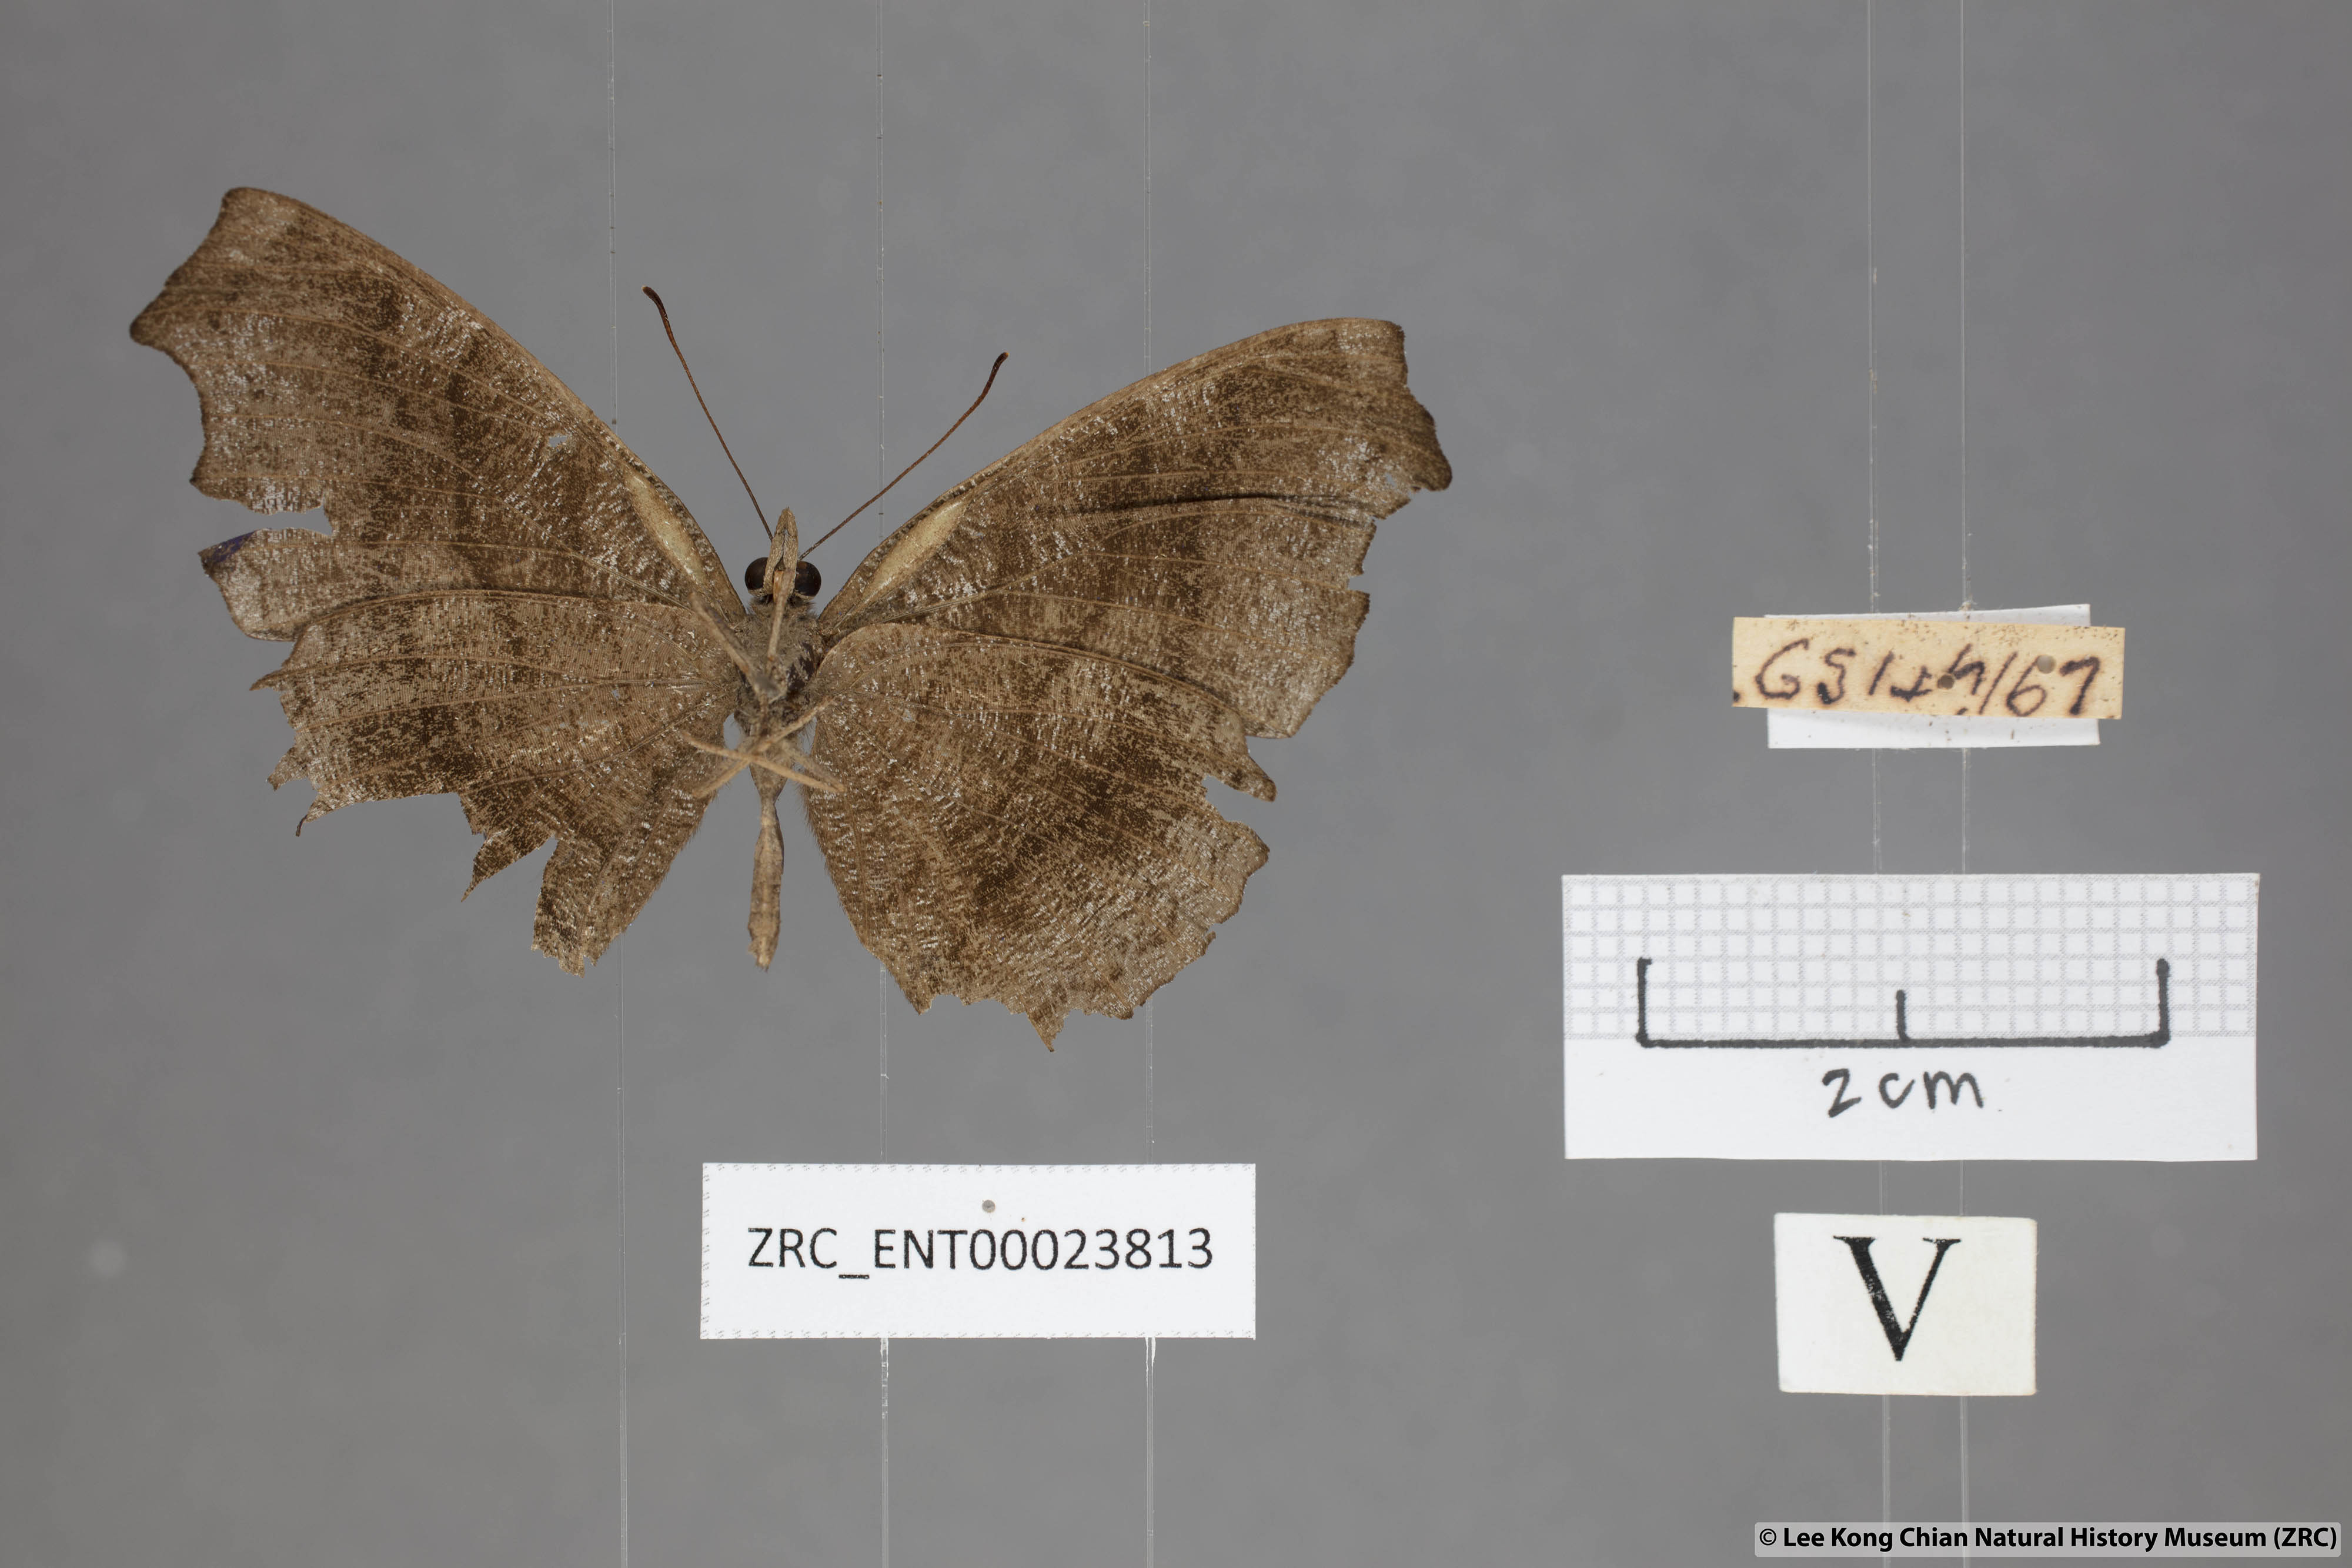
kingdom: Animalia
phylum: Arthropoda
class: Insecta
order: Lepidoptera
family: Nymphalidae
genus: Laringa
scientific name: Laringa castelnaui
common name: Blue dandy
